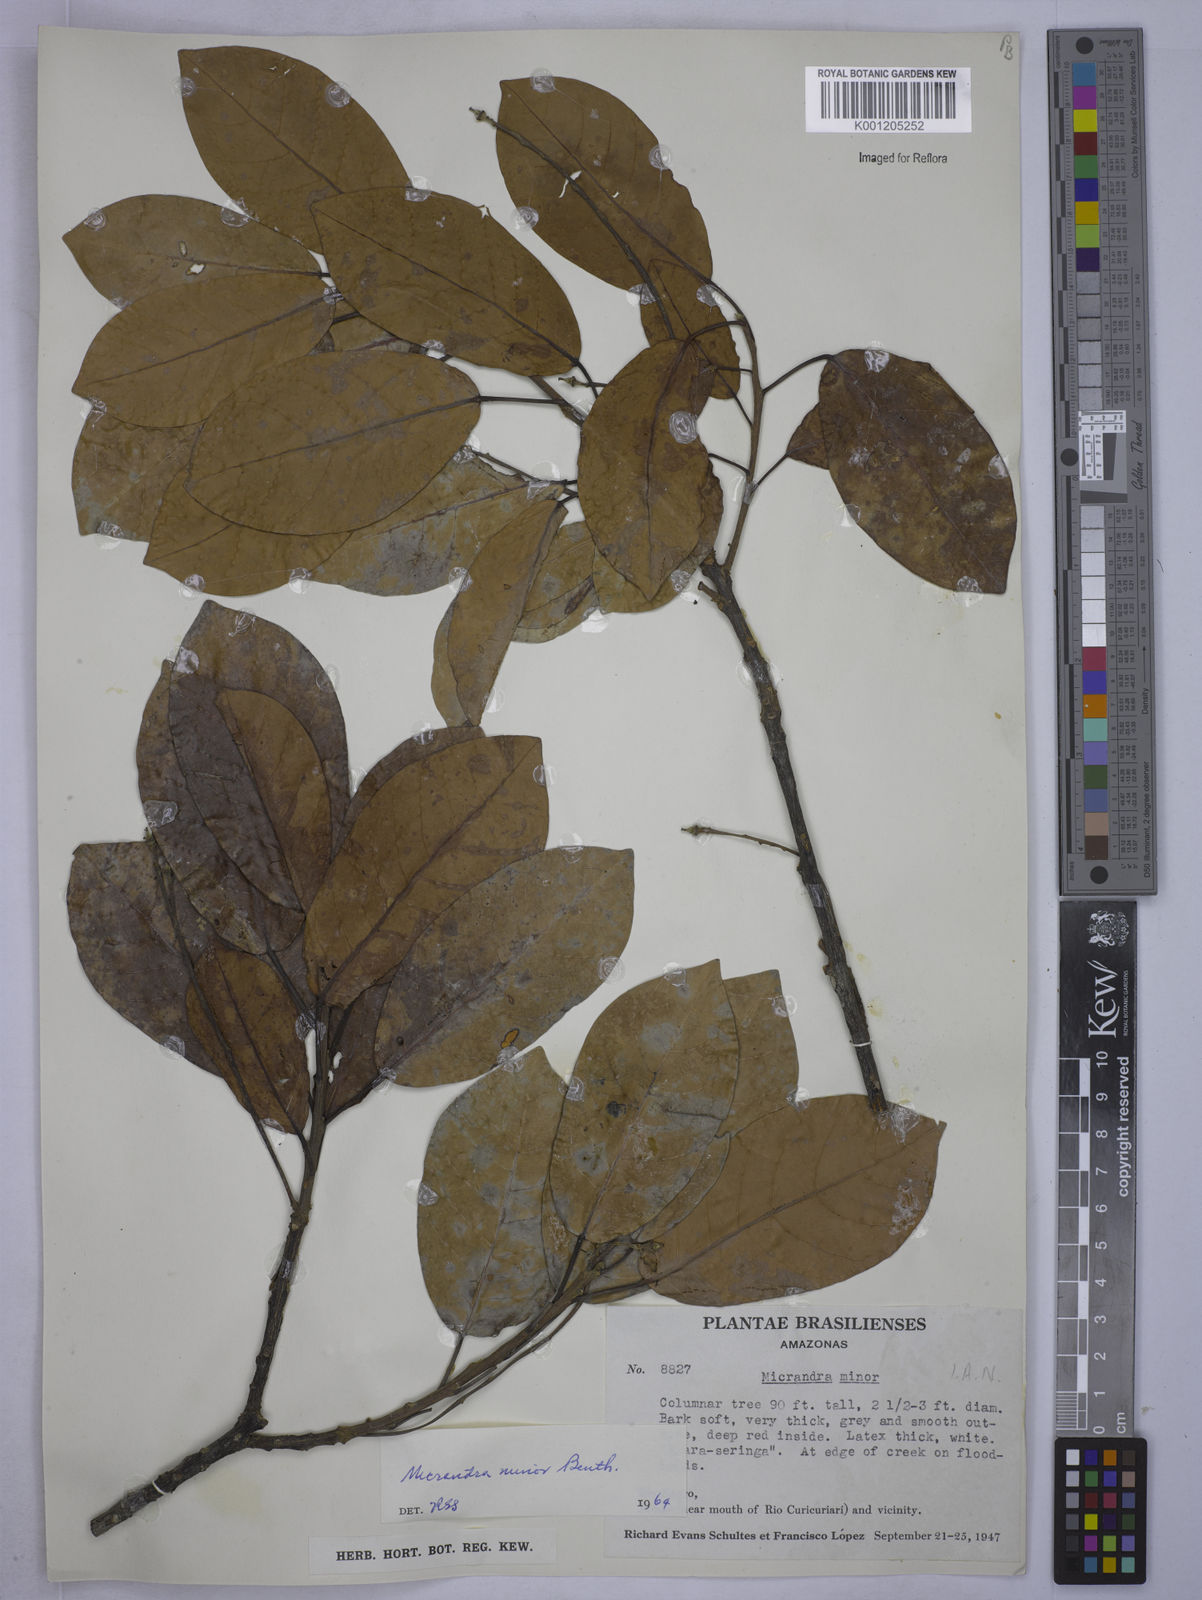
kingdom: Plantae
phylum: Tracheophyta
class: Magnoliopsida
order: Malpighiales
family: Euphorbiaceae
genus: Micrandra
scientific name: Micrandra minor
